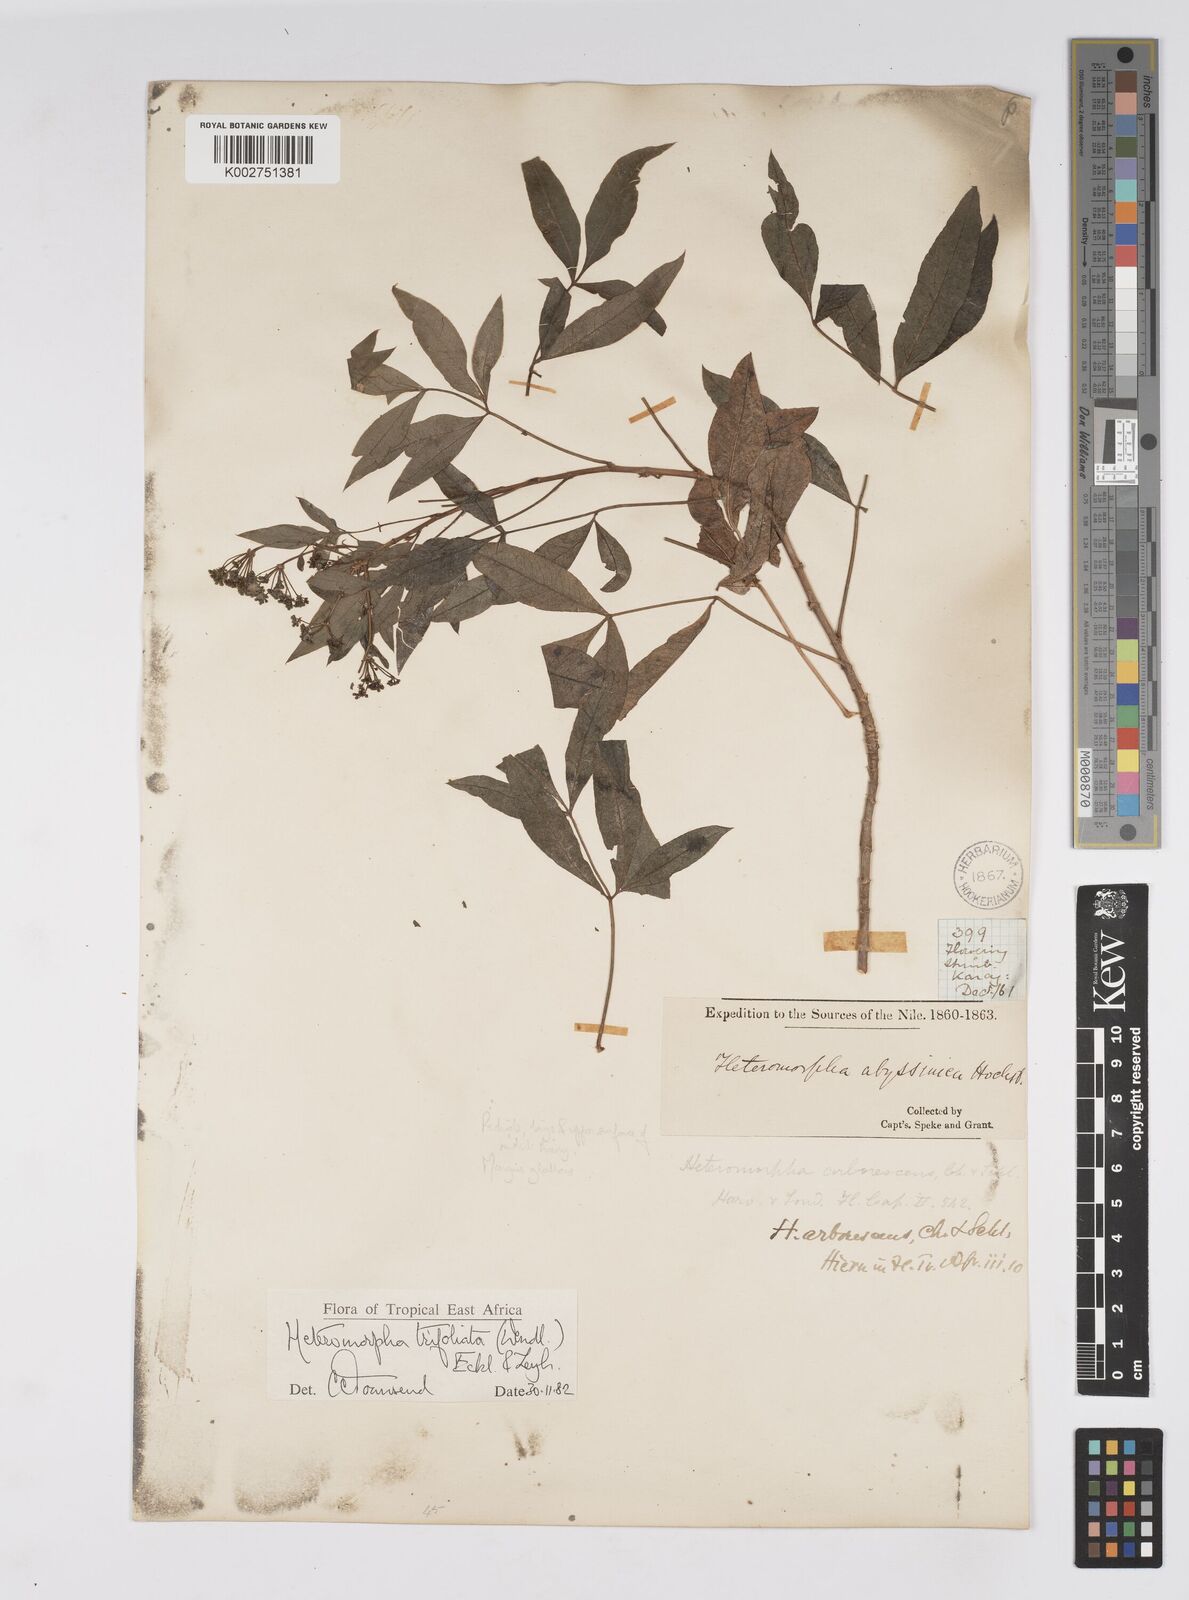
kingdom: Plantae
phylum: Tracheophyta
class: Magnoliopsida
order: Apiales
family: Apiaceae
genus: Heteromorpha
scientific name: Heteromorpha arborescens
